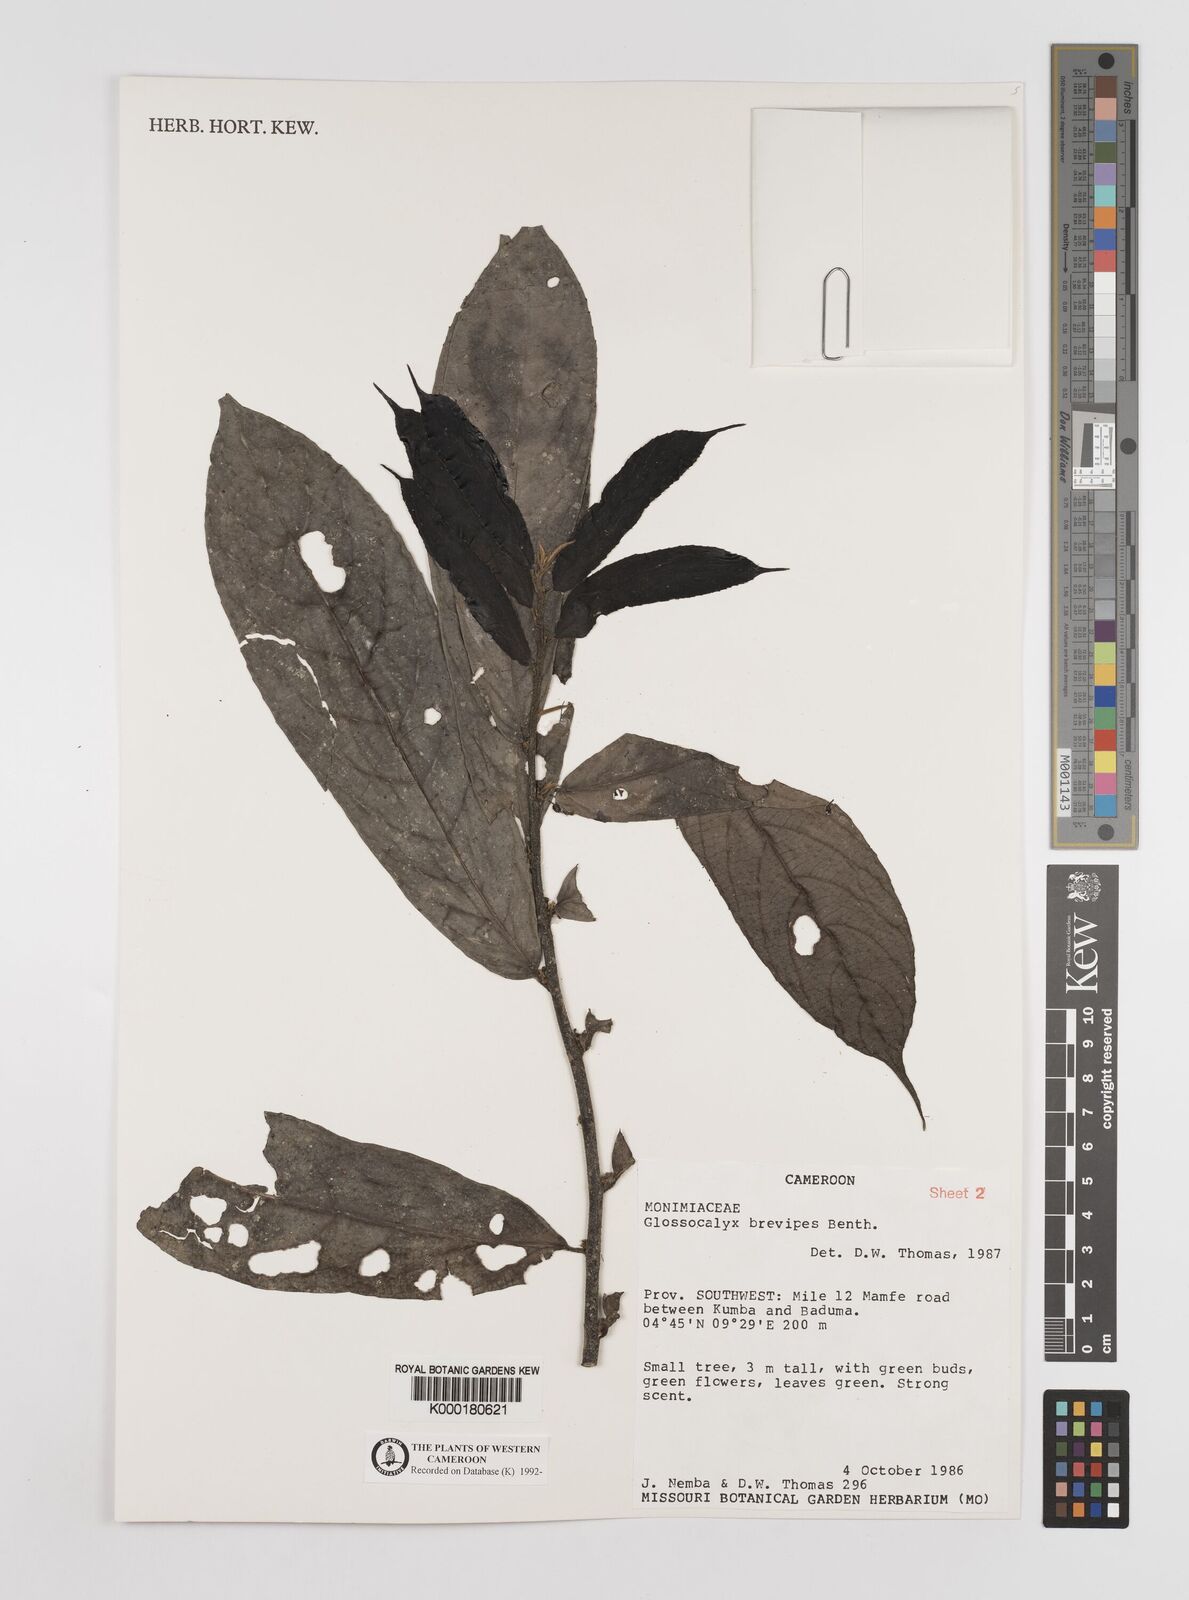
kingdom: Plantae
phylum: Tracheophyta
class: Magnoliopsida
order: Laurales
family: Siparunaceae
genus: Glossocalyx
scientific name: Glossocalyx brevipes
